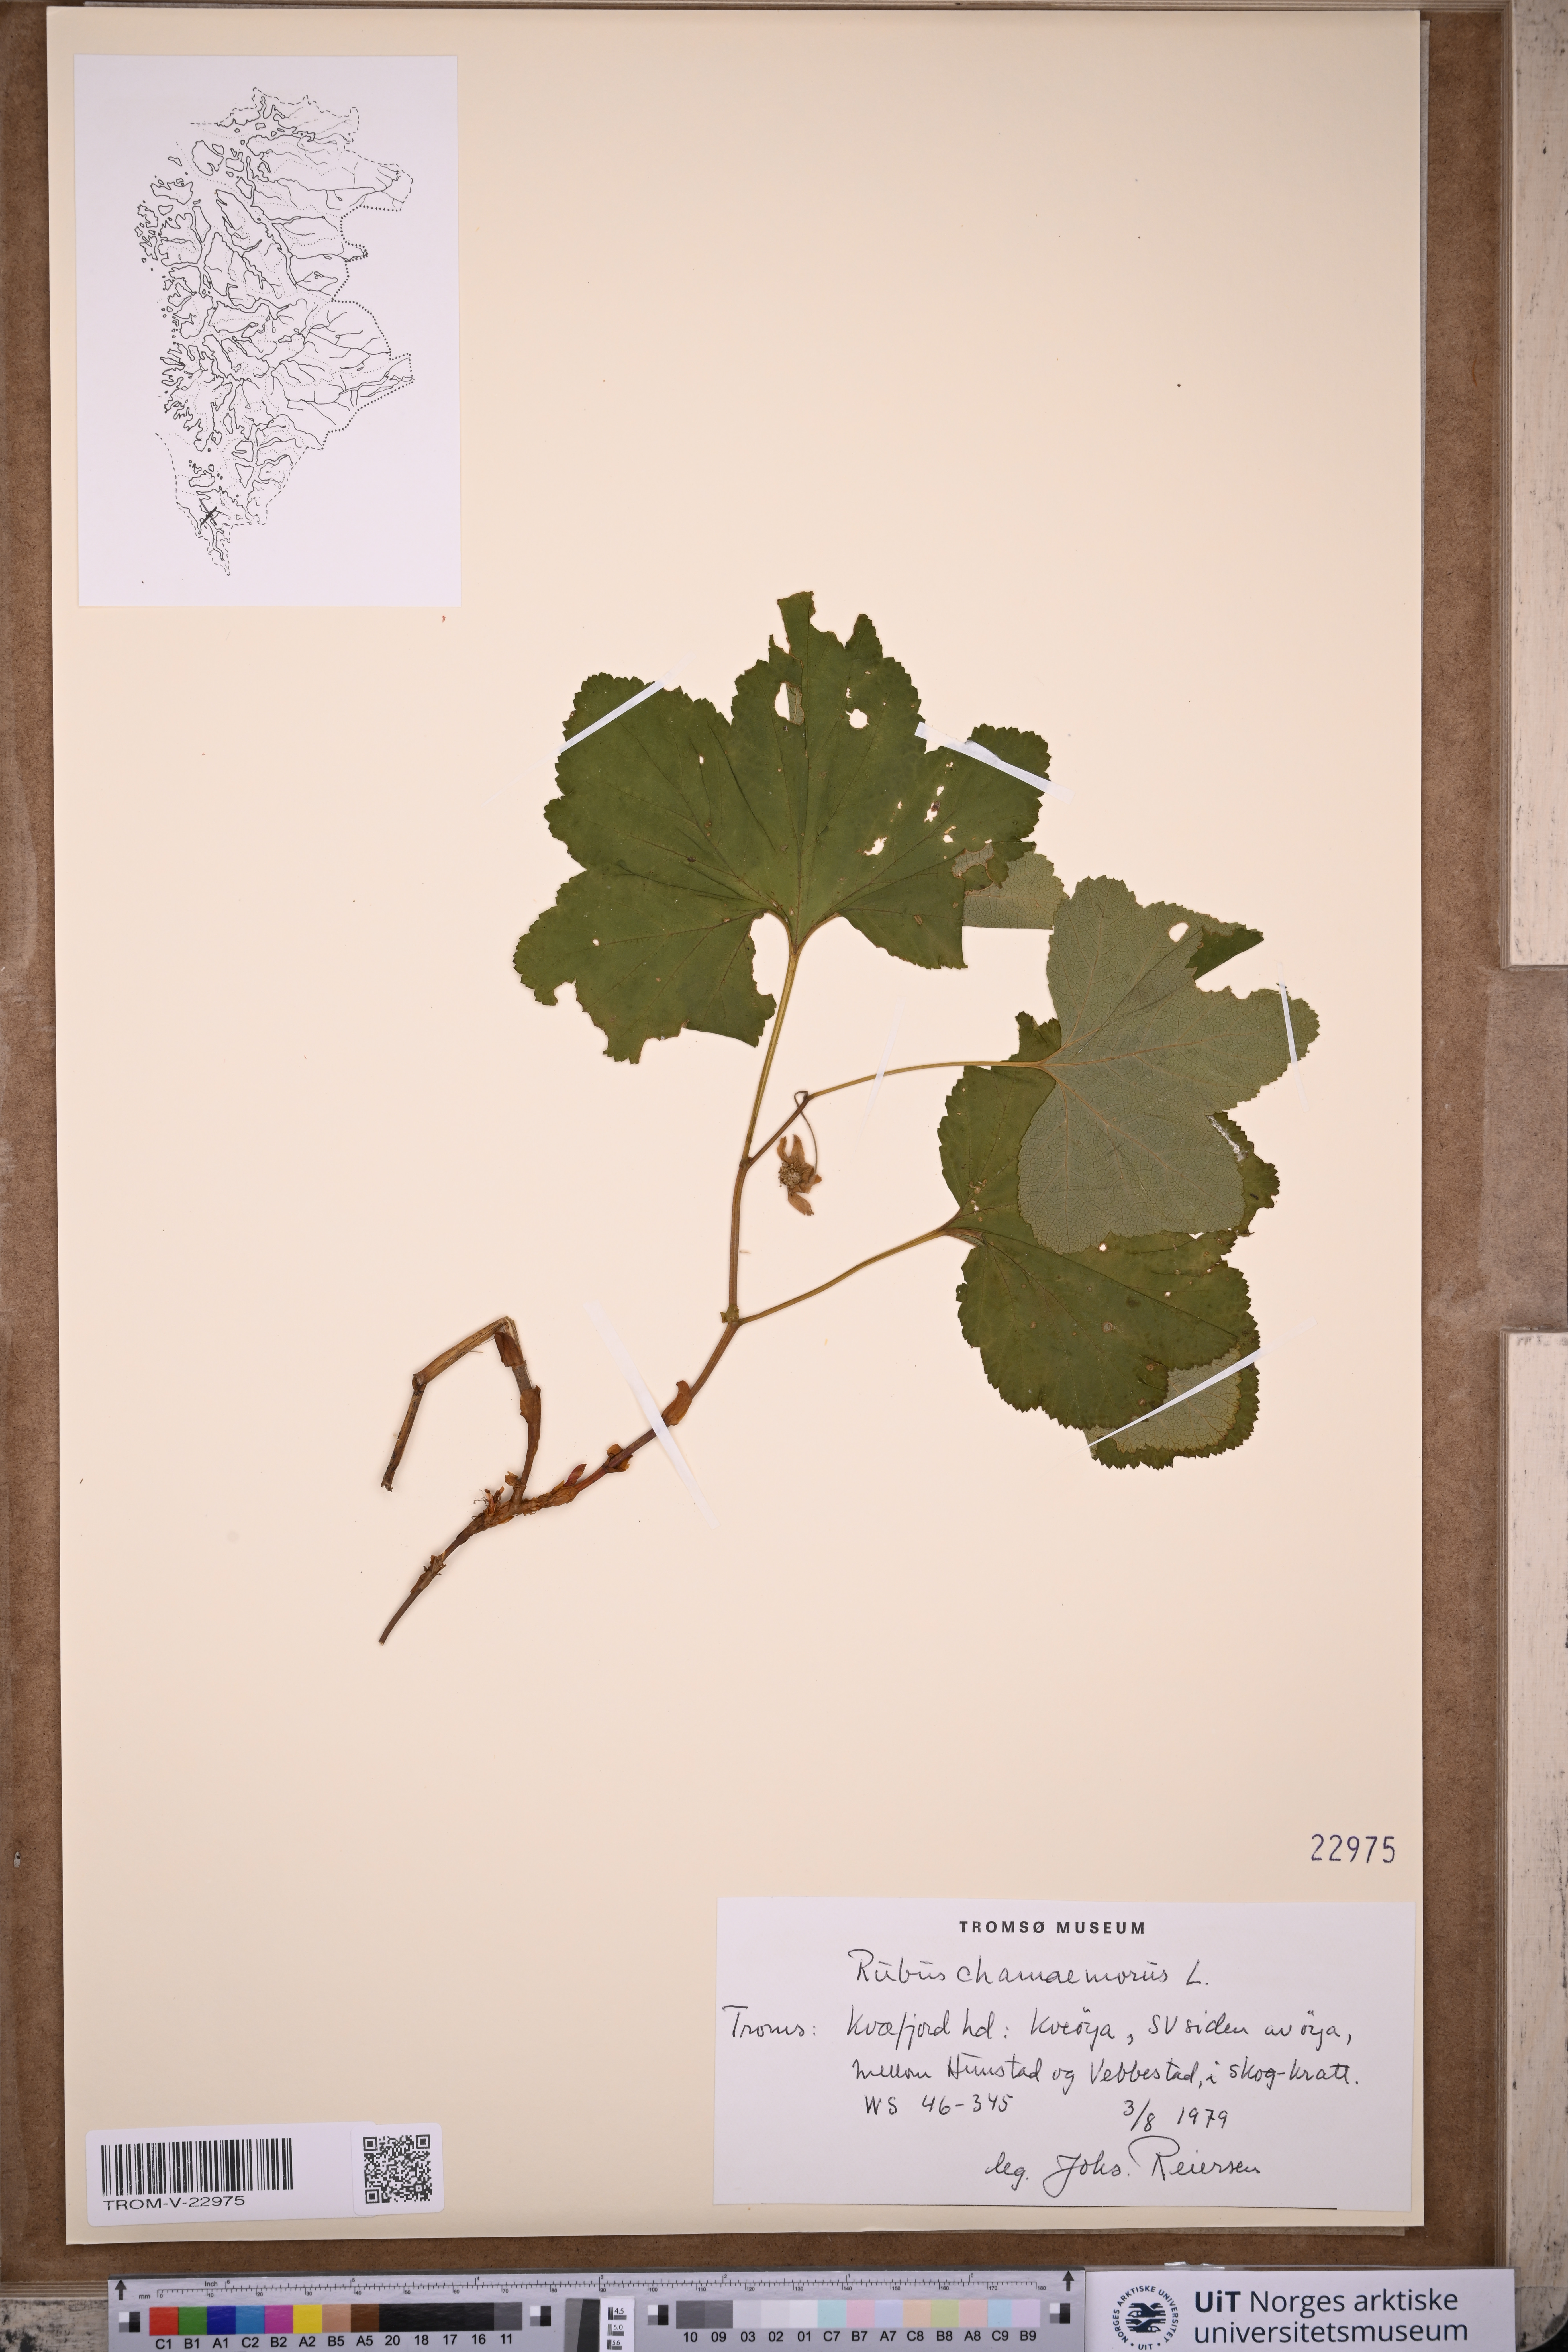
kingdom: Plantae
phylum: Tracheophyta
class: Magnoliopsida
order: Rosales
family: Rosaceae
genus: Rubus
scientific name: Rubus chamaemorus
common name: Cloudberry
